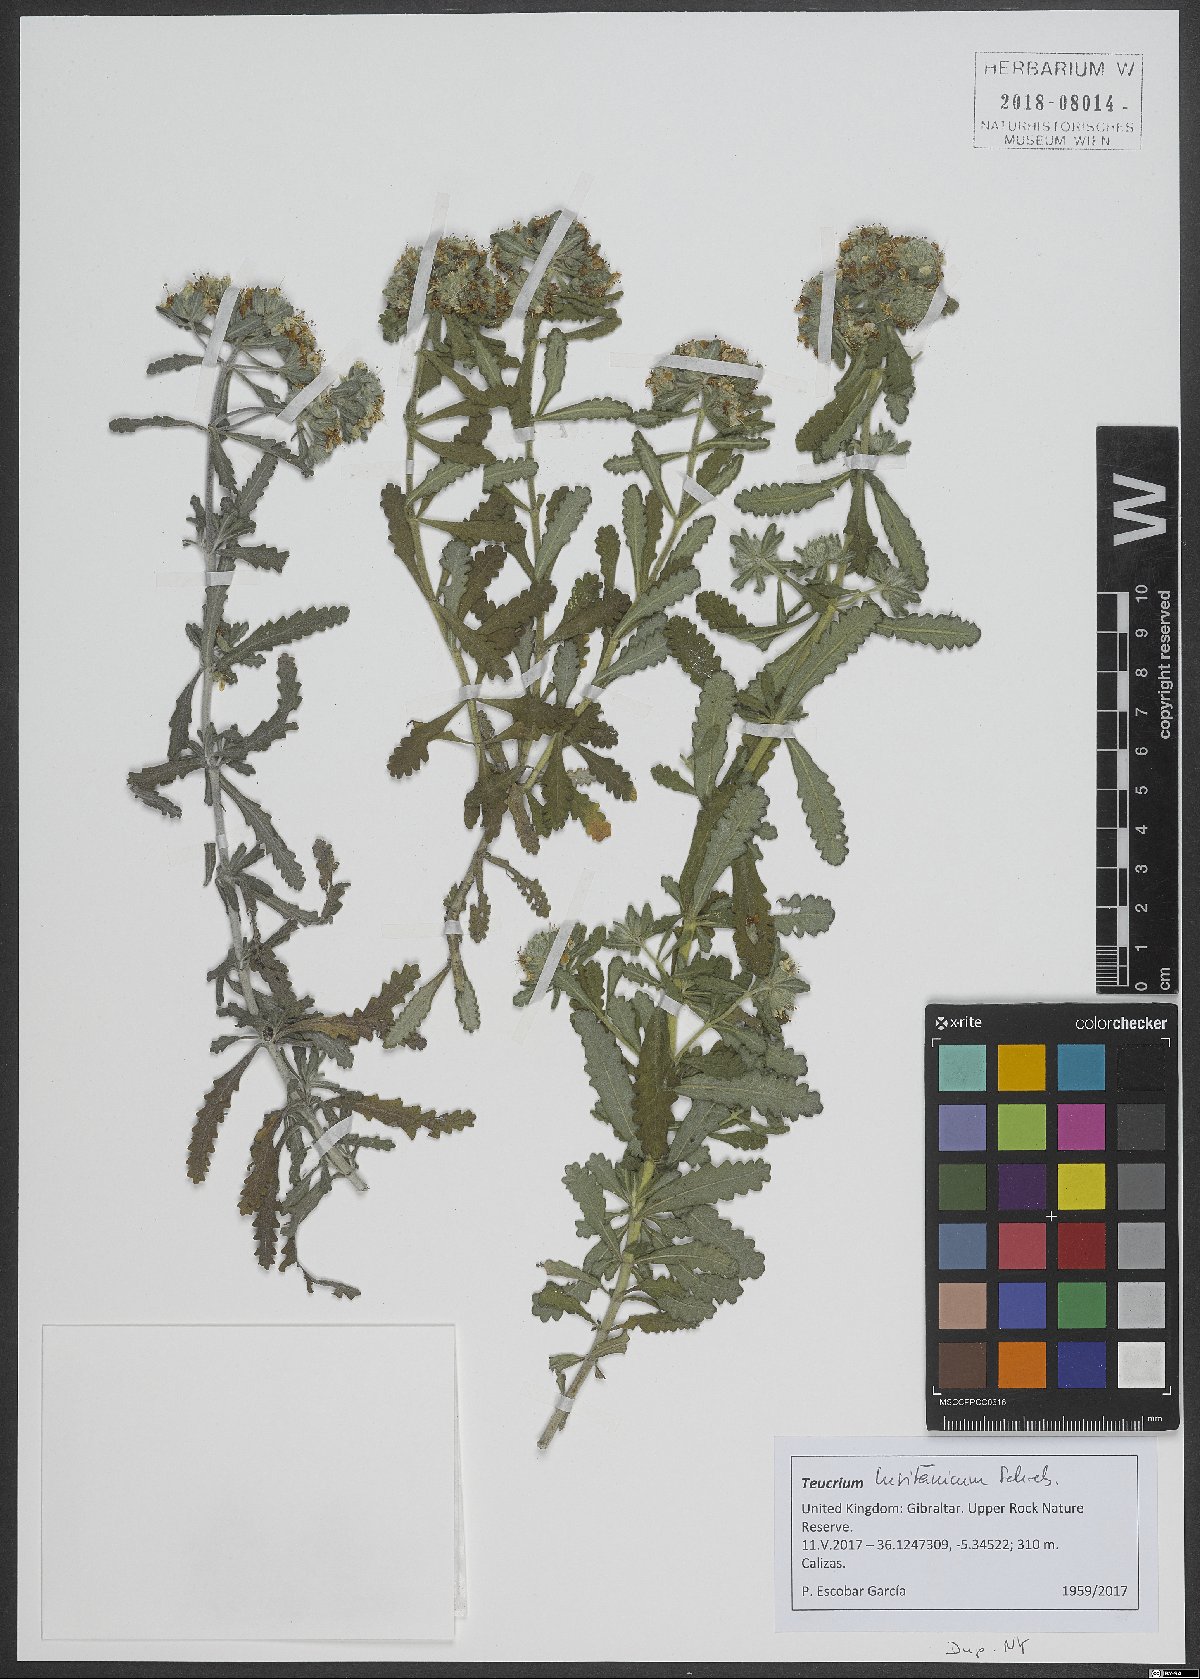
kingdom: Plantae
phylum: Tracheophyta
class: Magnoliopsida
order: Lamiales
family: Lamiaceae
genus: Teucrium
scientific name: Teucrium lusitanicum
